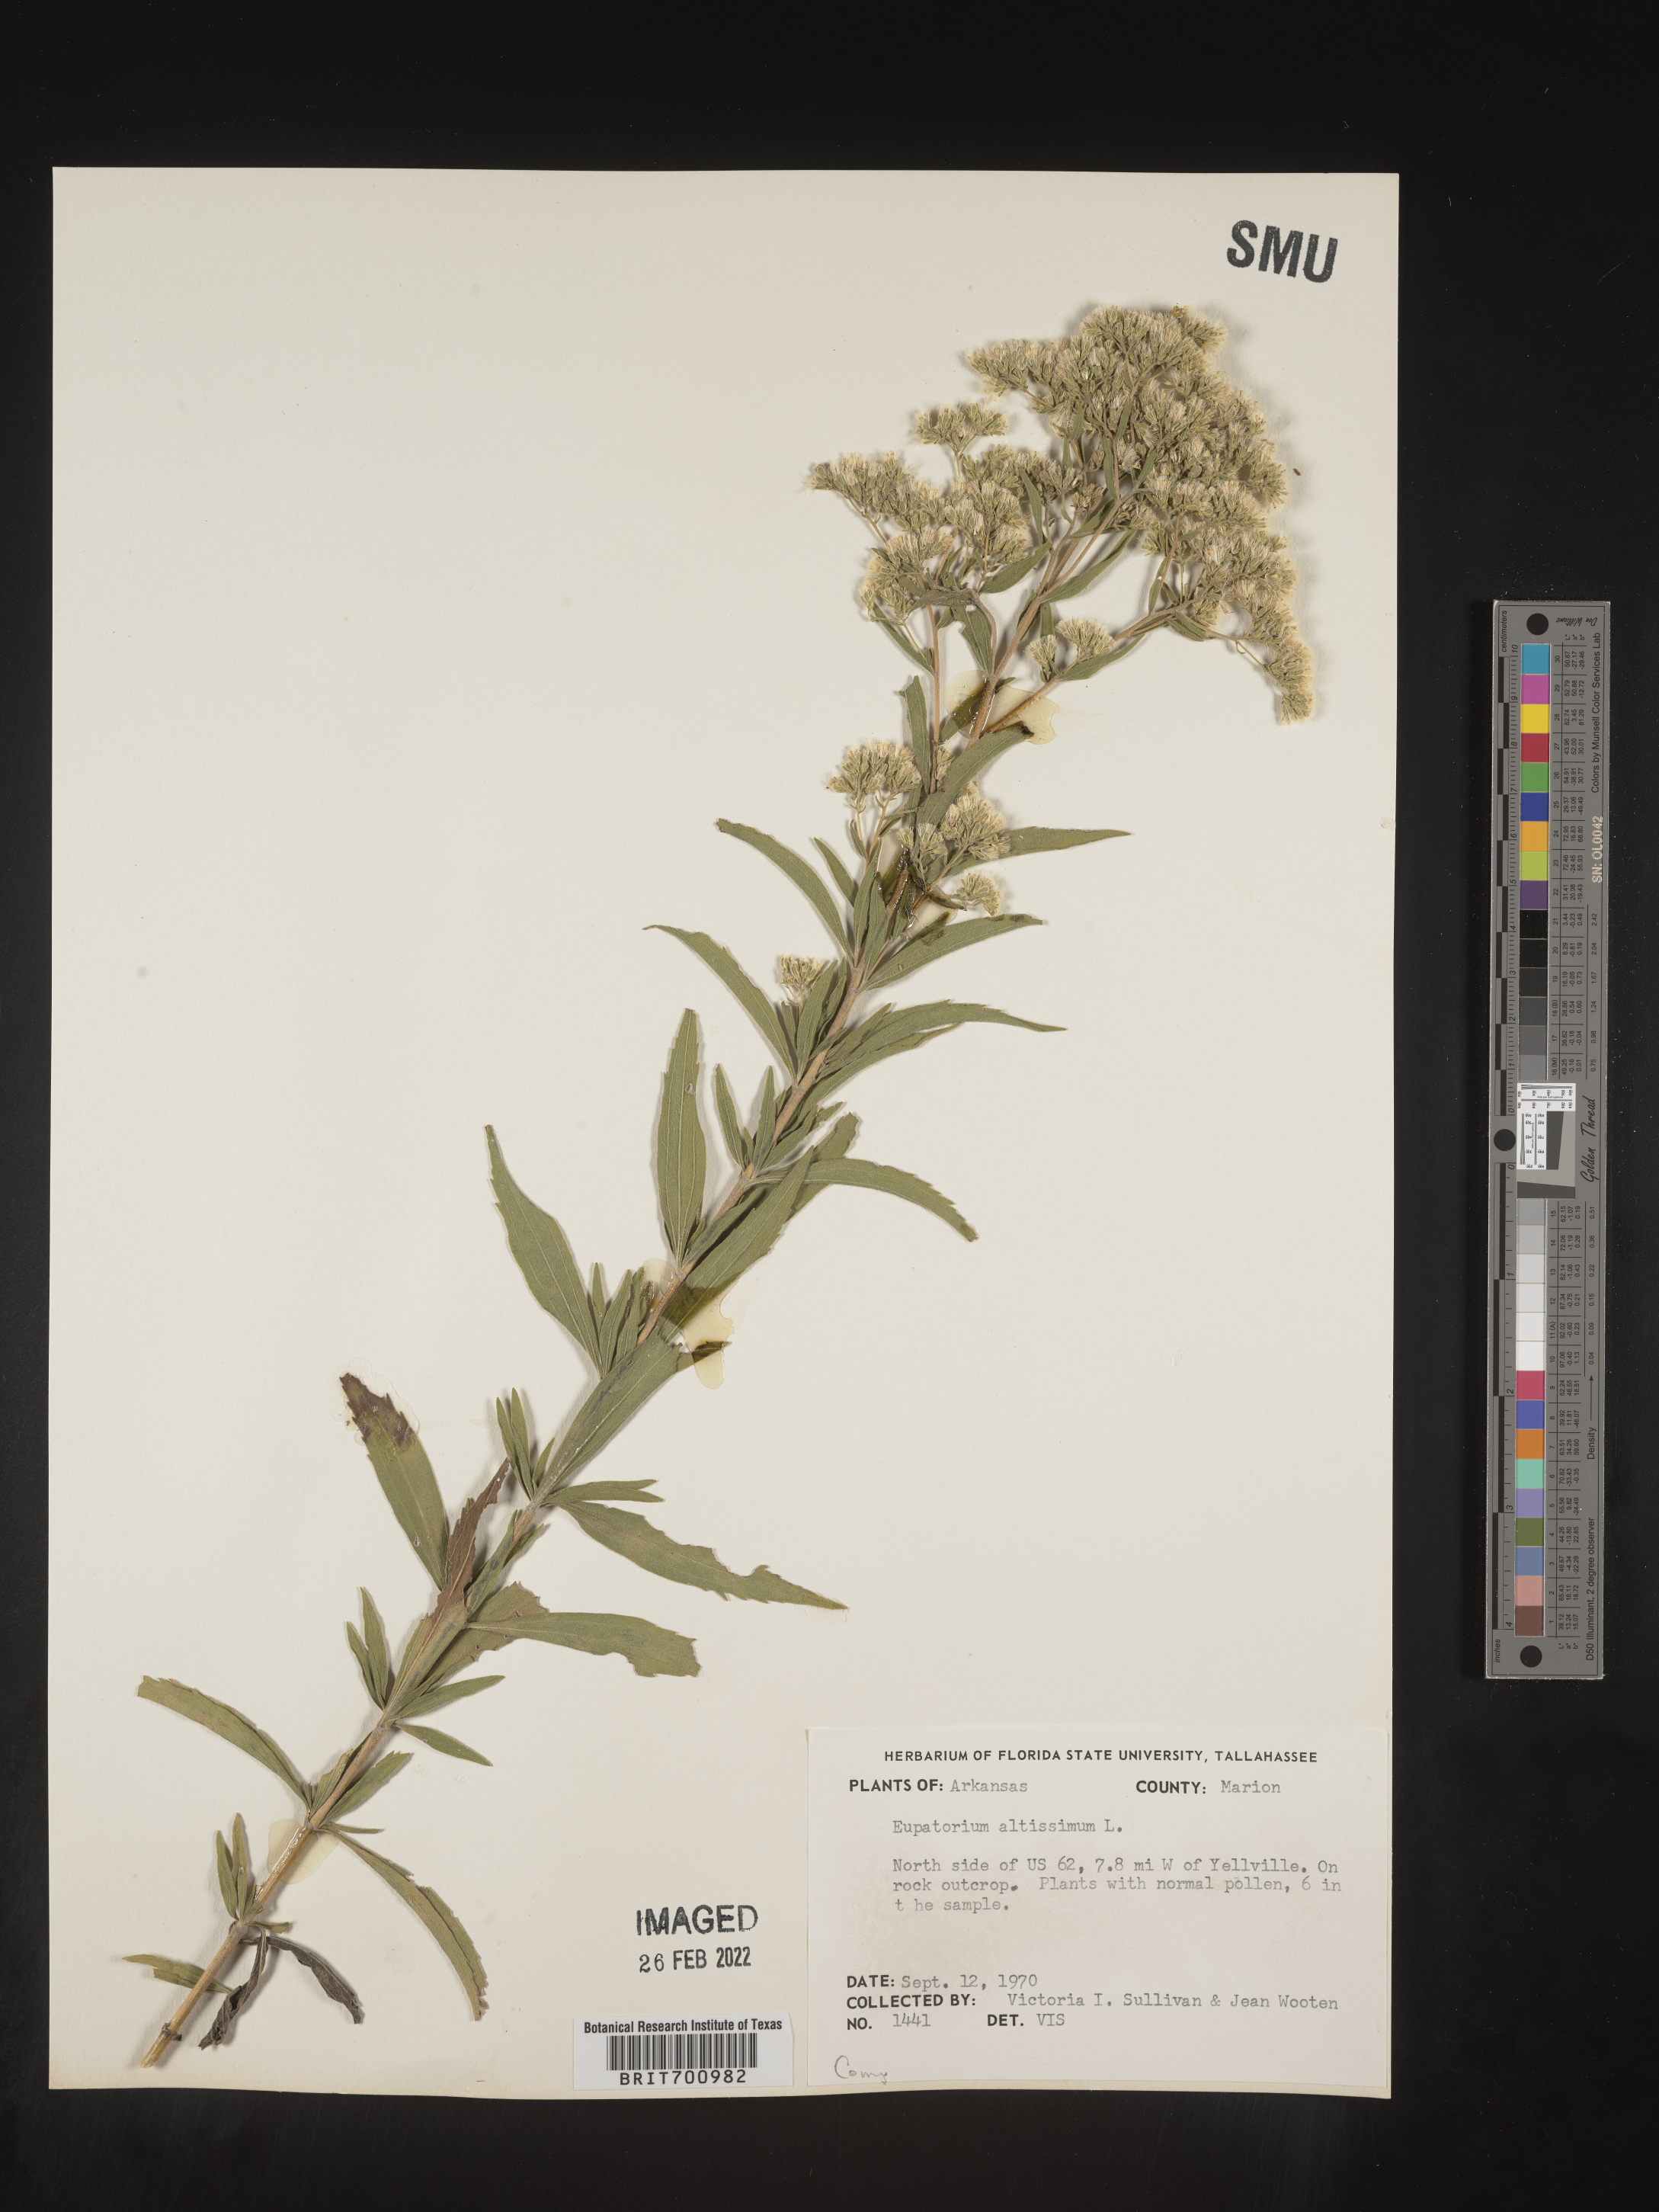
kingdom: Plantae
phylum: Tracheophyta
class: Magnoliopsida
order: Asterales
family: Asteraceae
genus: Eupatorium
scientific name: Eupatorium altissimum
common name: Tall thoroughwort
